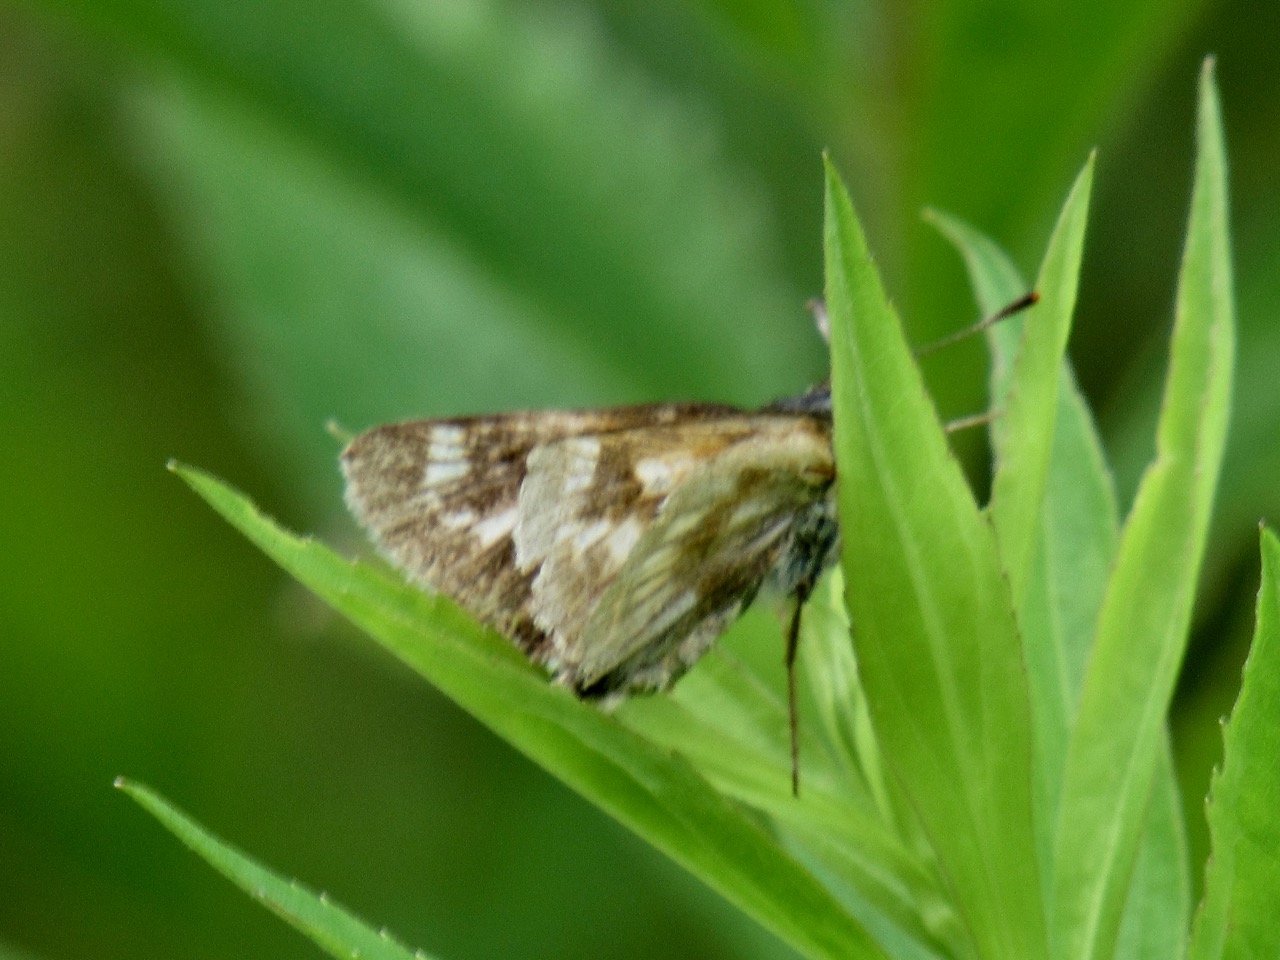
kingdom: Animalia
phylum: Arthropoda
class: Insecta
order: Lepidoptera
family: Hesperiidae
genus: Polites
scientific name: Polites
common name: Long Dash Skipper
